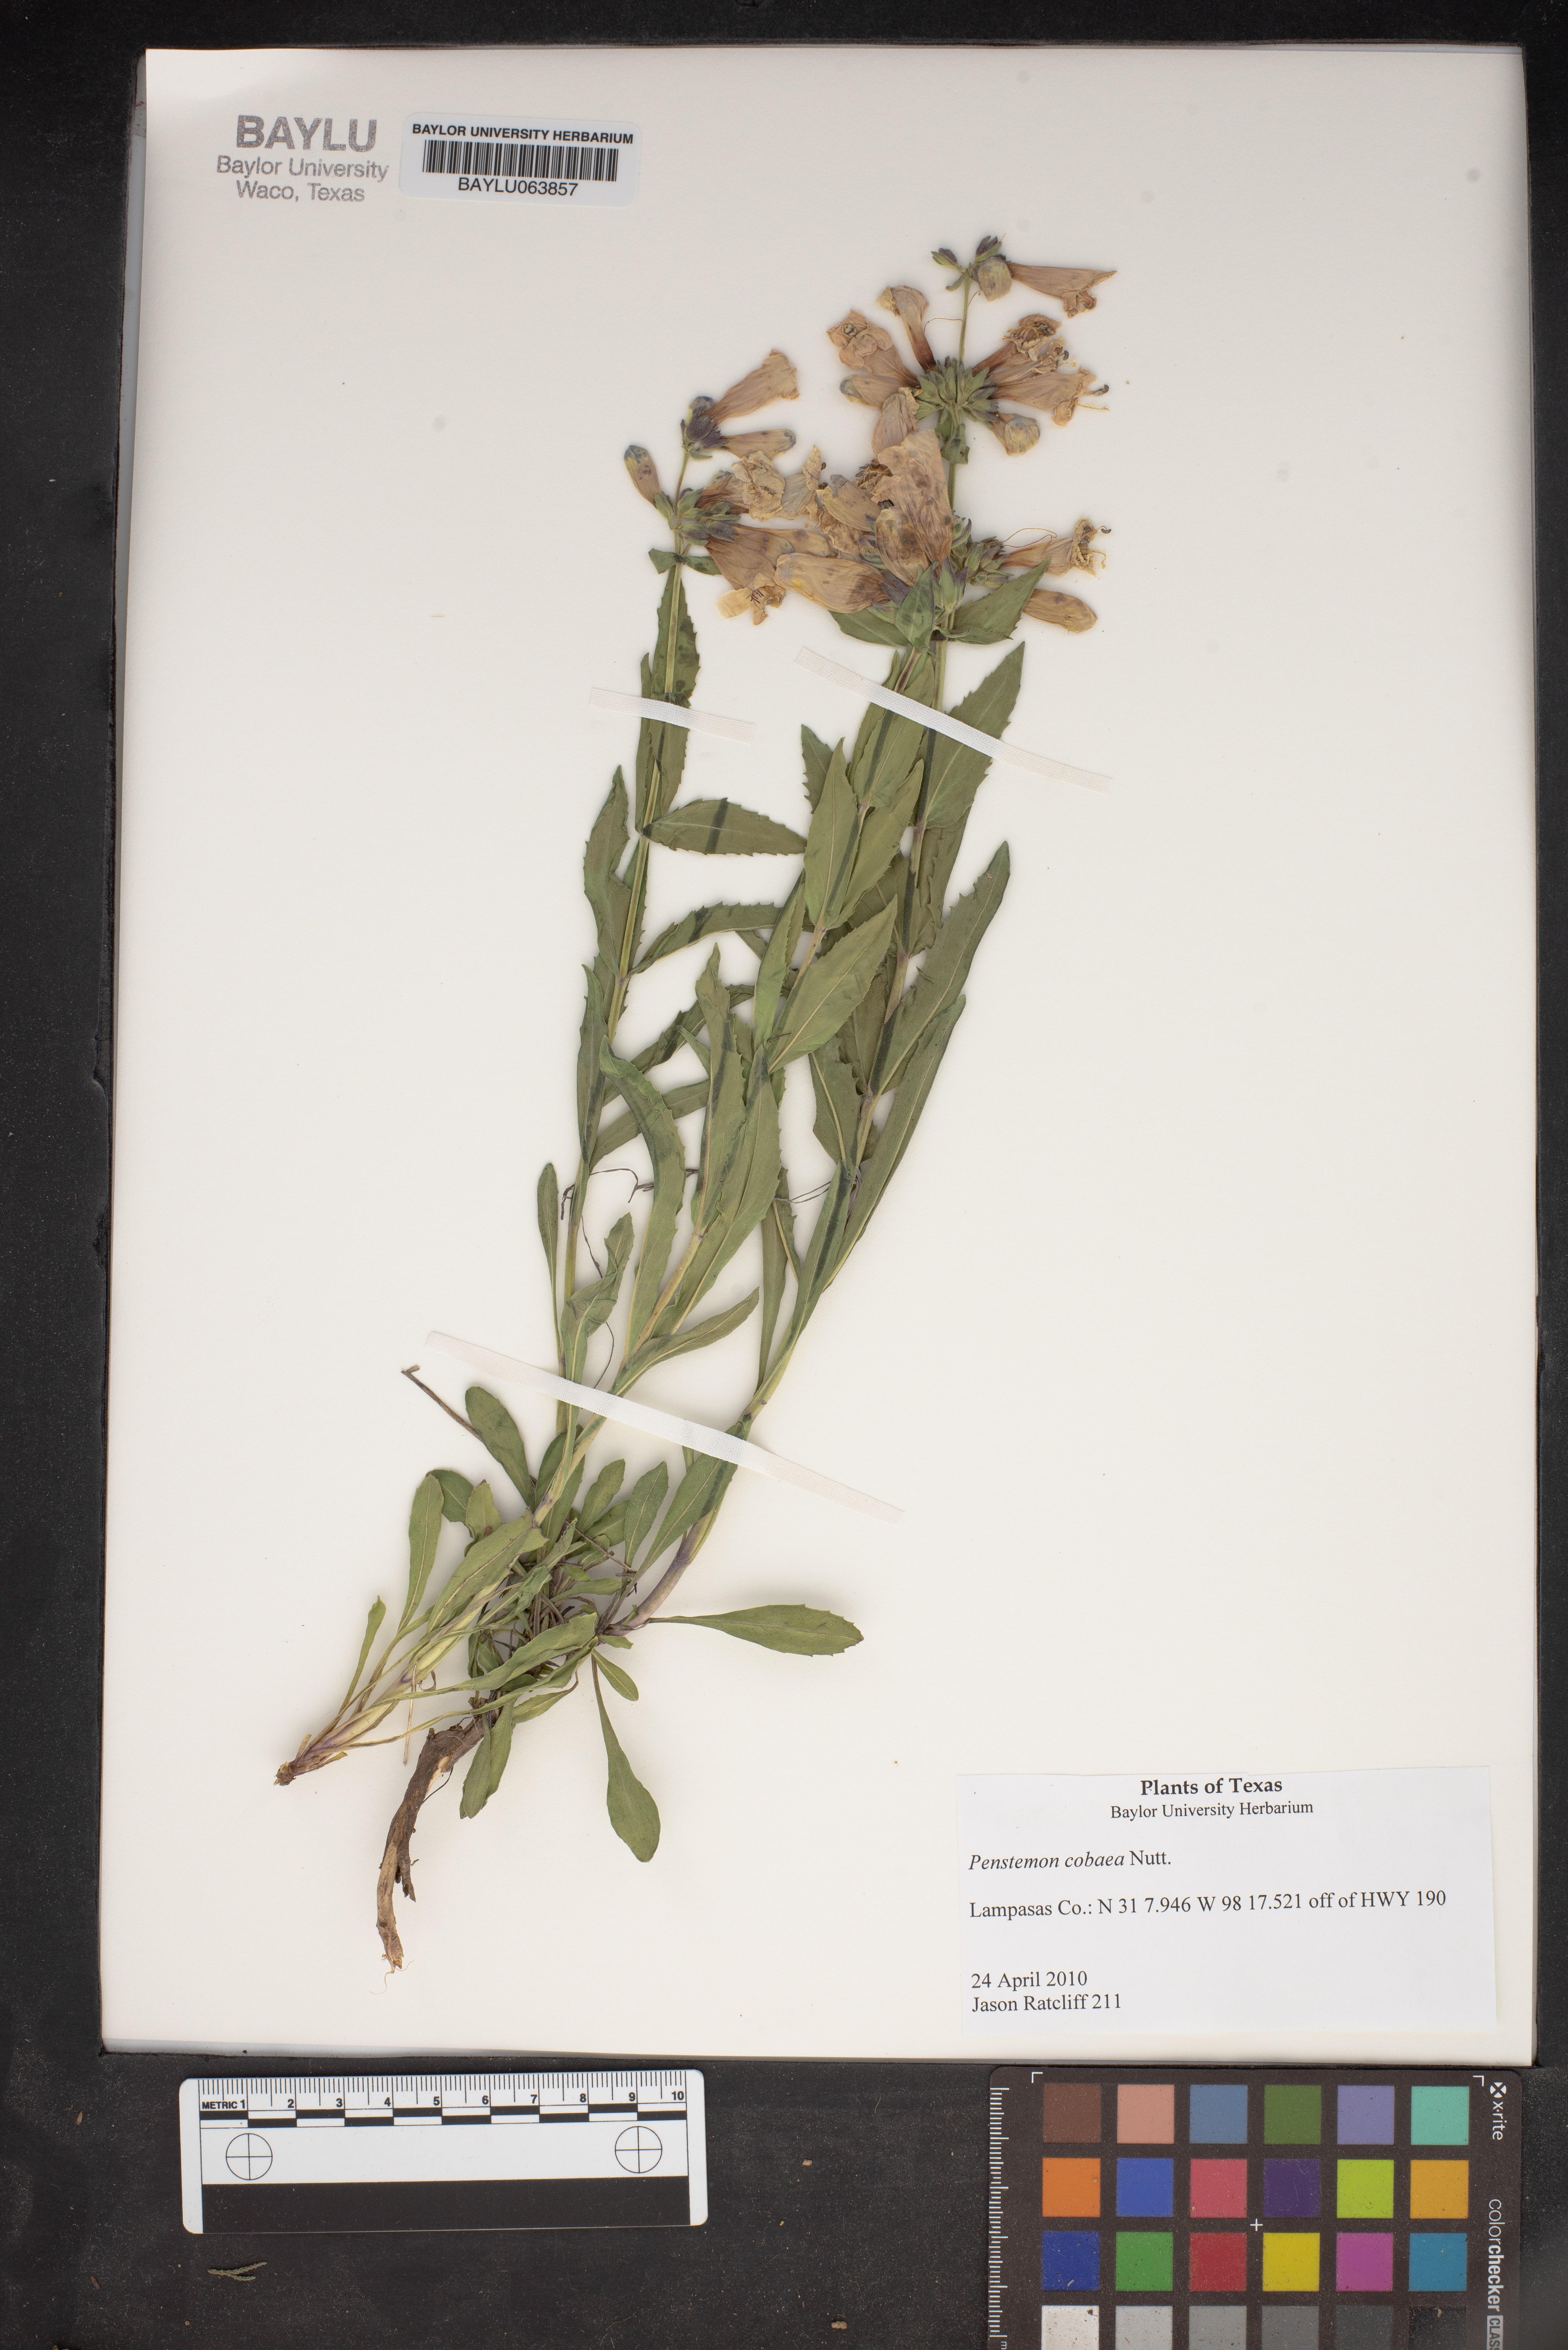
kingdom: Plantae
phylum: Tracheophyta
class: Magnoliopsida
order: Lamiales
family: Plantaginaceae
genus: Penstemon
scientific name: Penstemon cobaea
